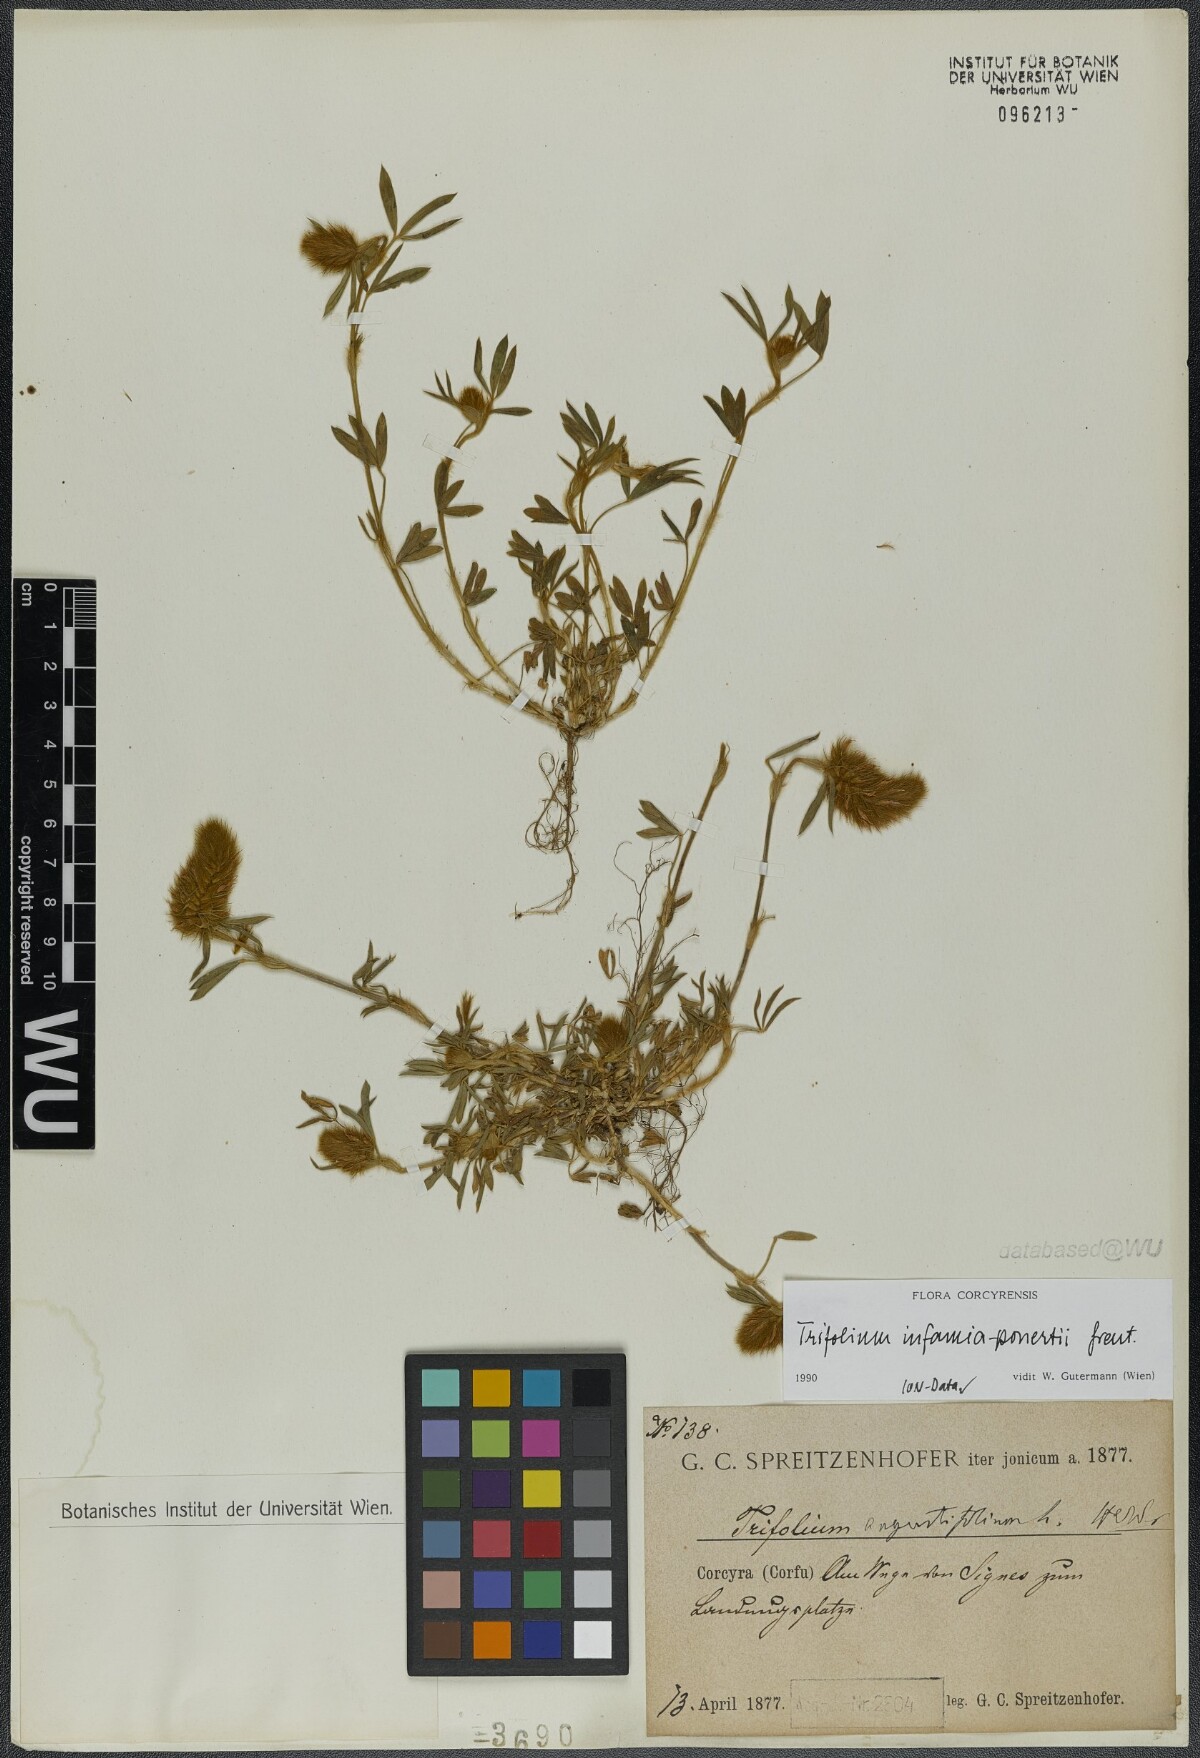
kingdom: Plantae
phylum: Tracheophyta
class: Magnoliopsida
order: Fabales
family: Fabaceae
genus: Trifolium
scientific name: Trifolium infamia-ponertii
